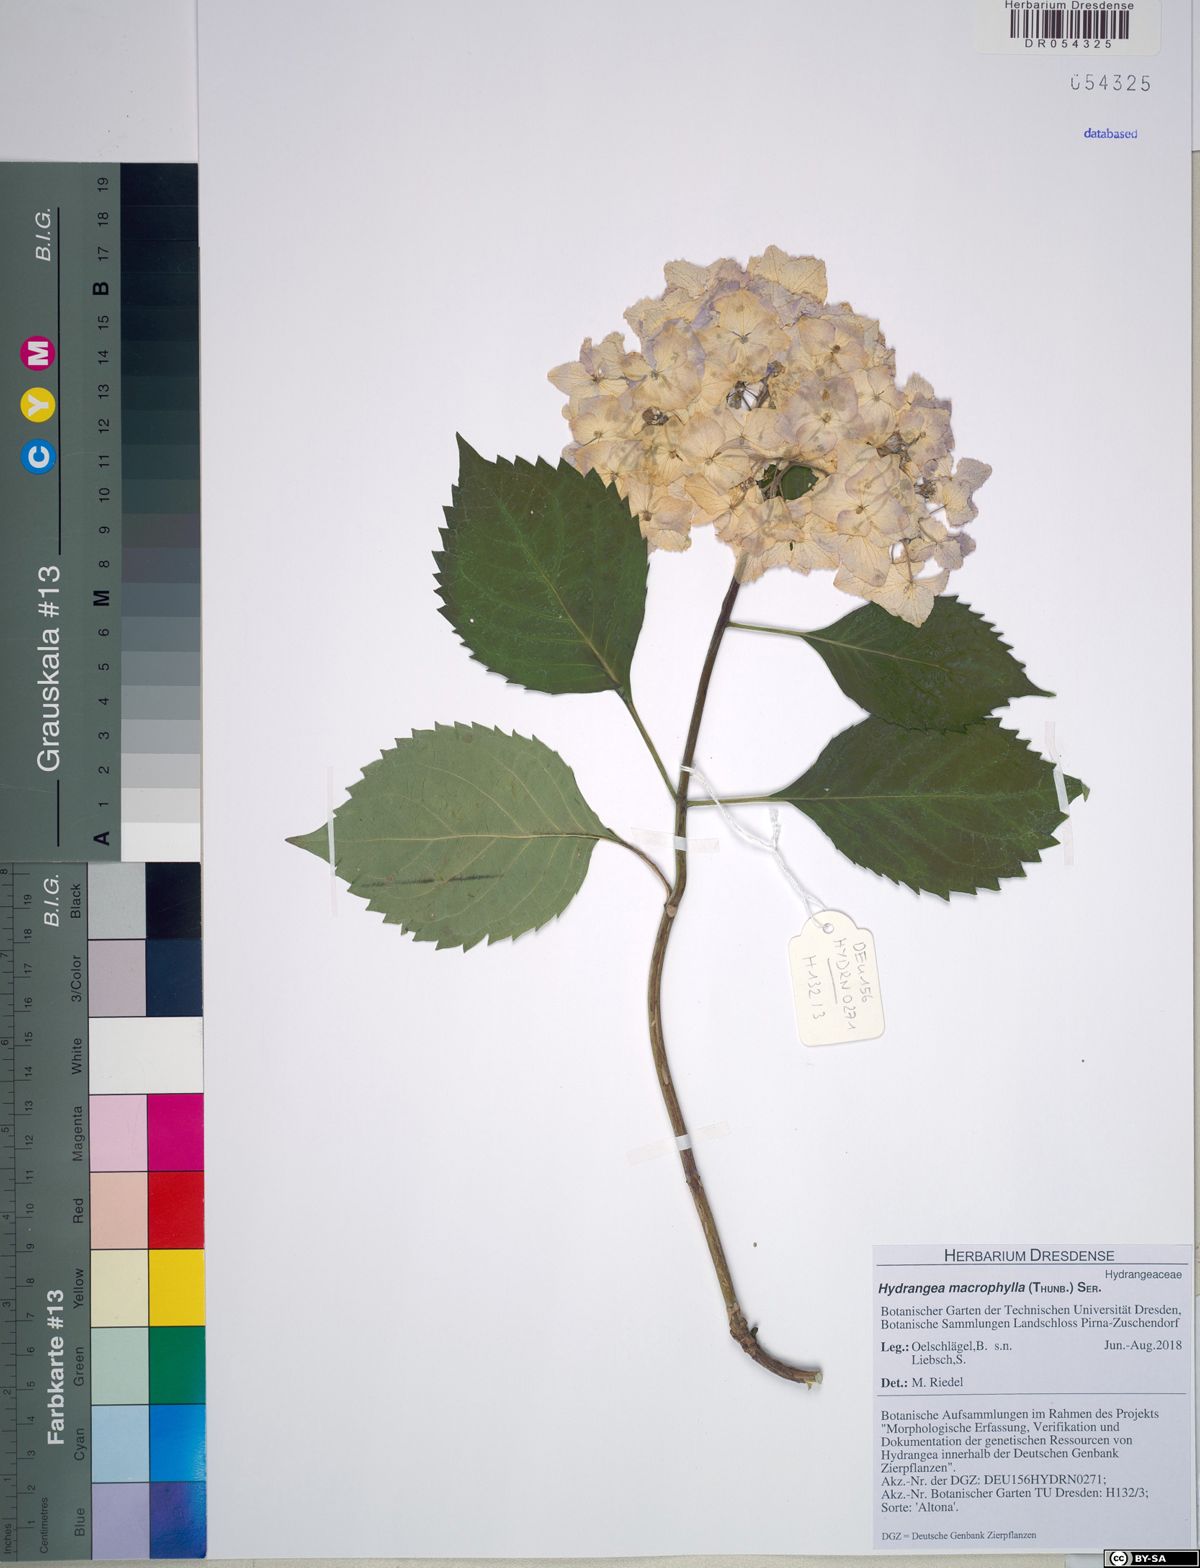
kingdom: Plantae
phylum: Tracheophyta
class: Magnoliopsida
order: Cornales
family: Hydrangeaceae
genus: Hydrangea
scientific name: Hydrangea macrophylla
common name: Hydrangea
